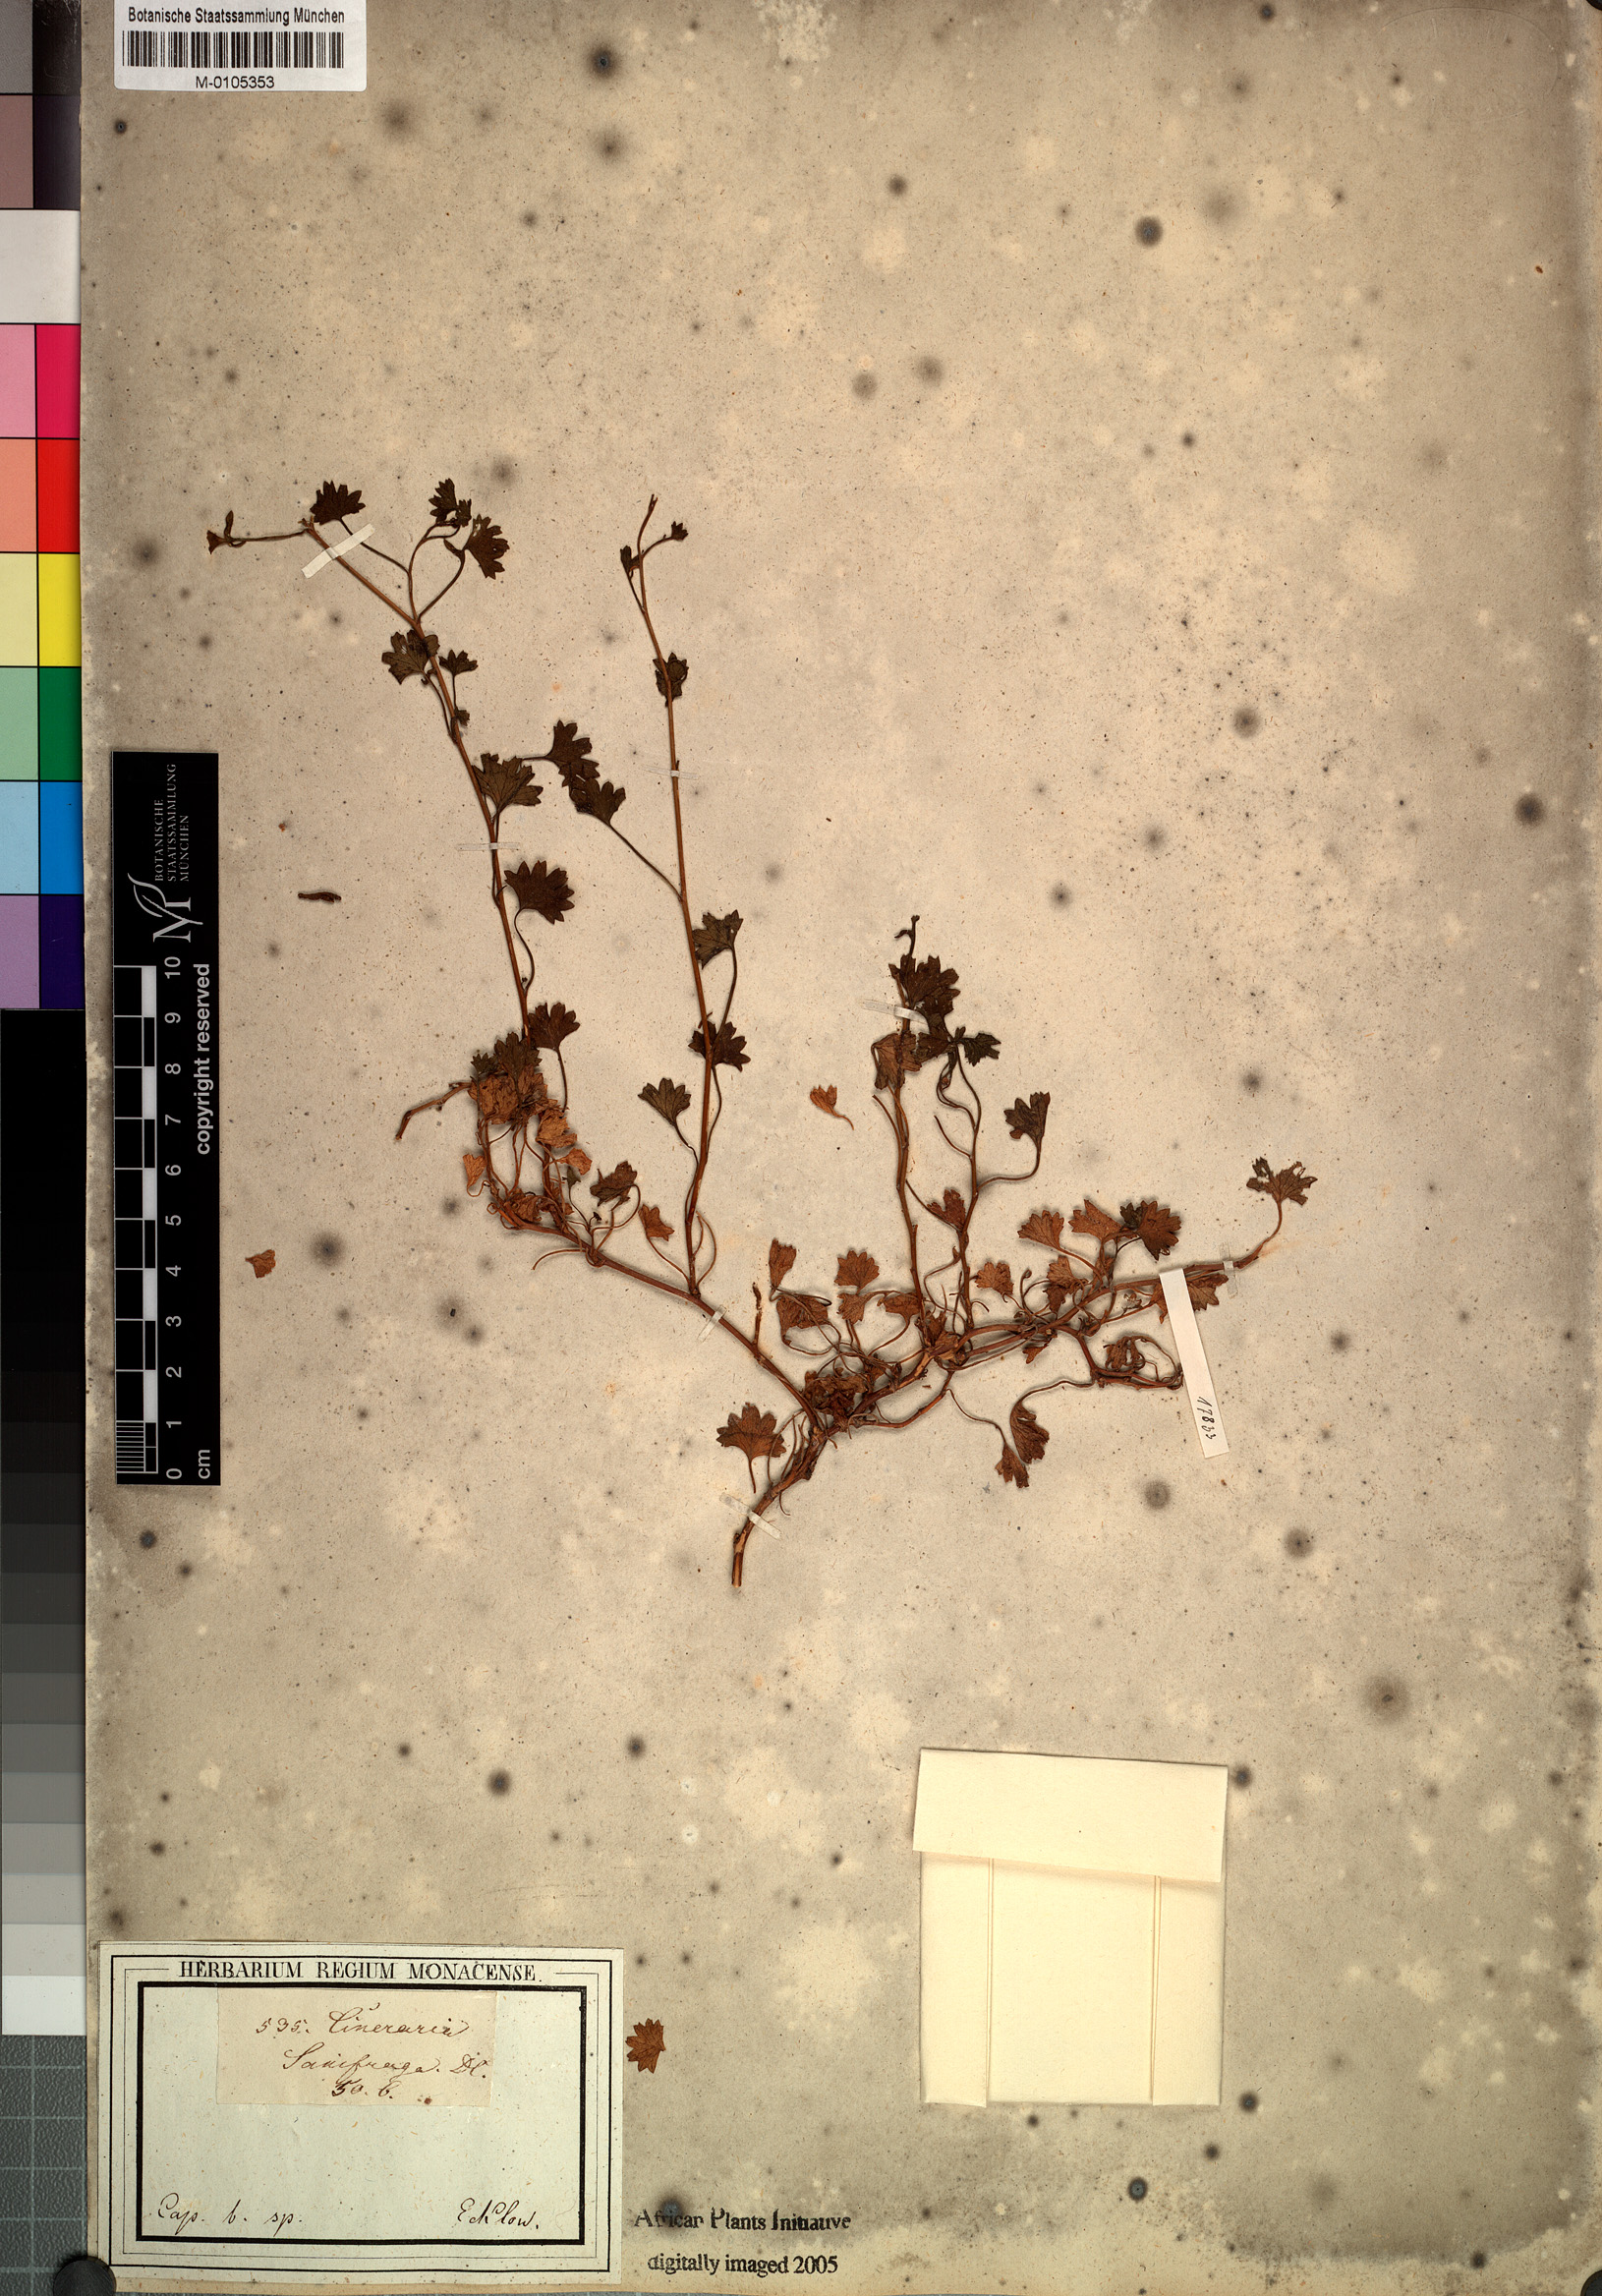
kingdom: Plantae
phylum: Tracheophyta
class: Magnoliopsida
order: Asterales
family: Asteraceae
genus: Cineraria
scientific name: Cineraria saxifraga
